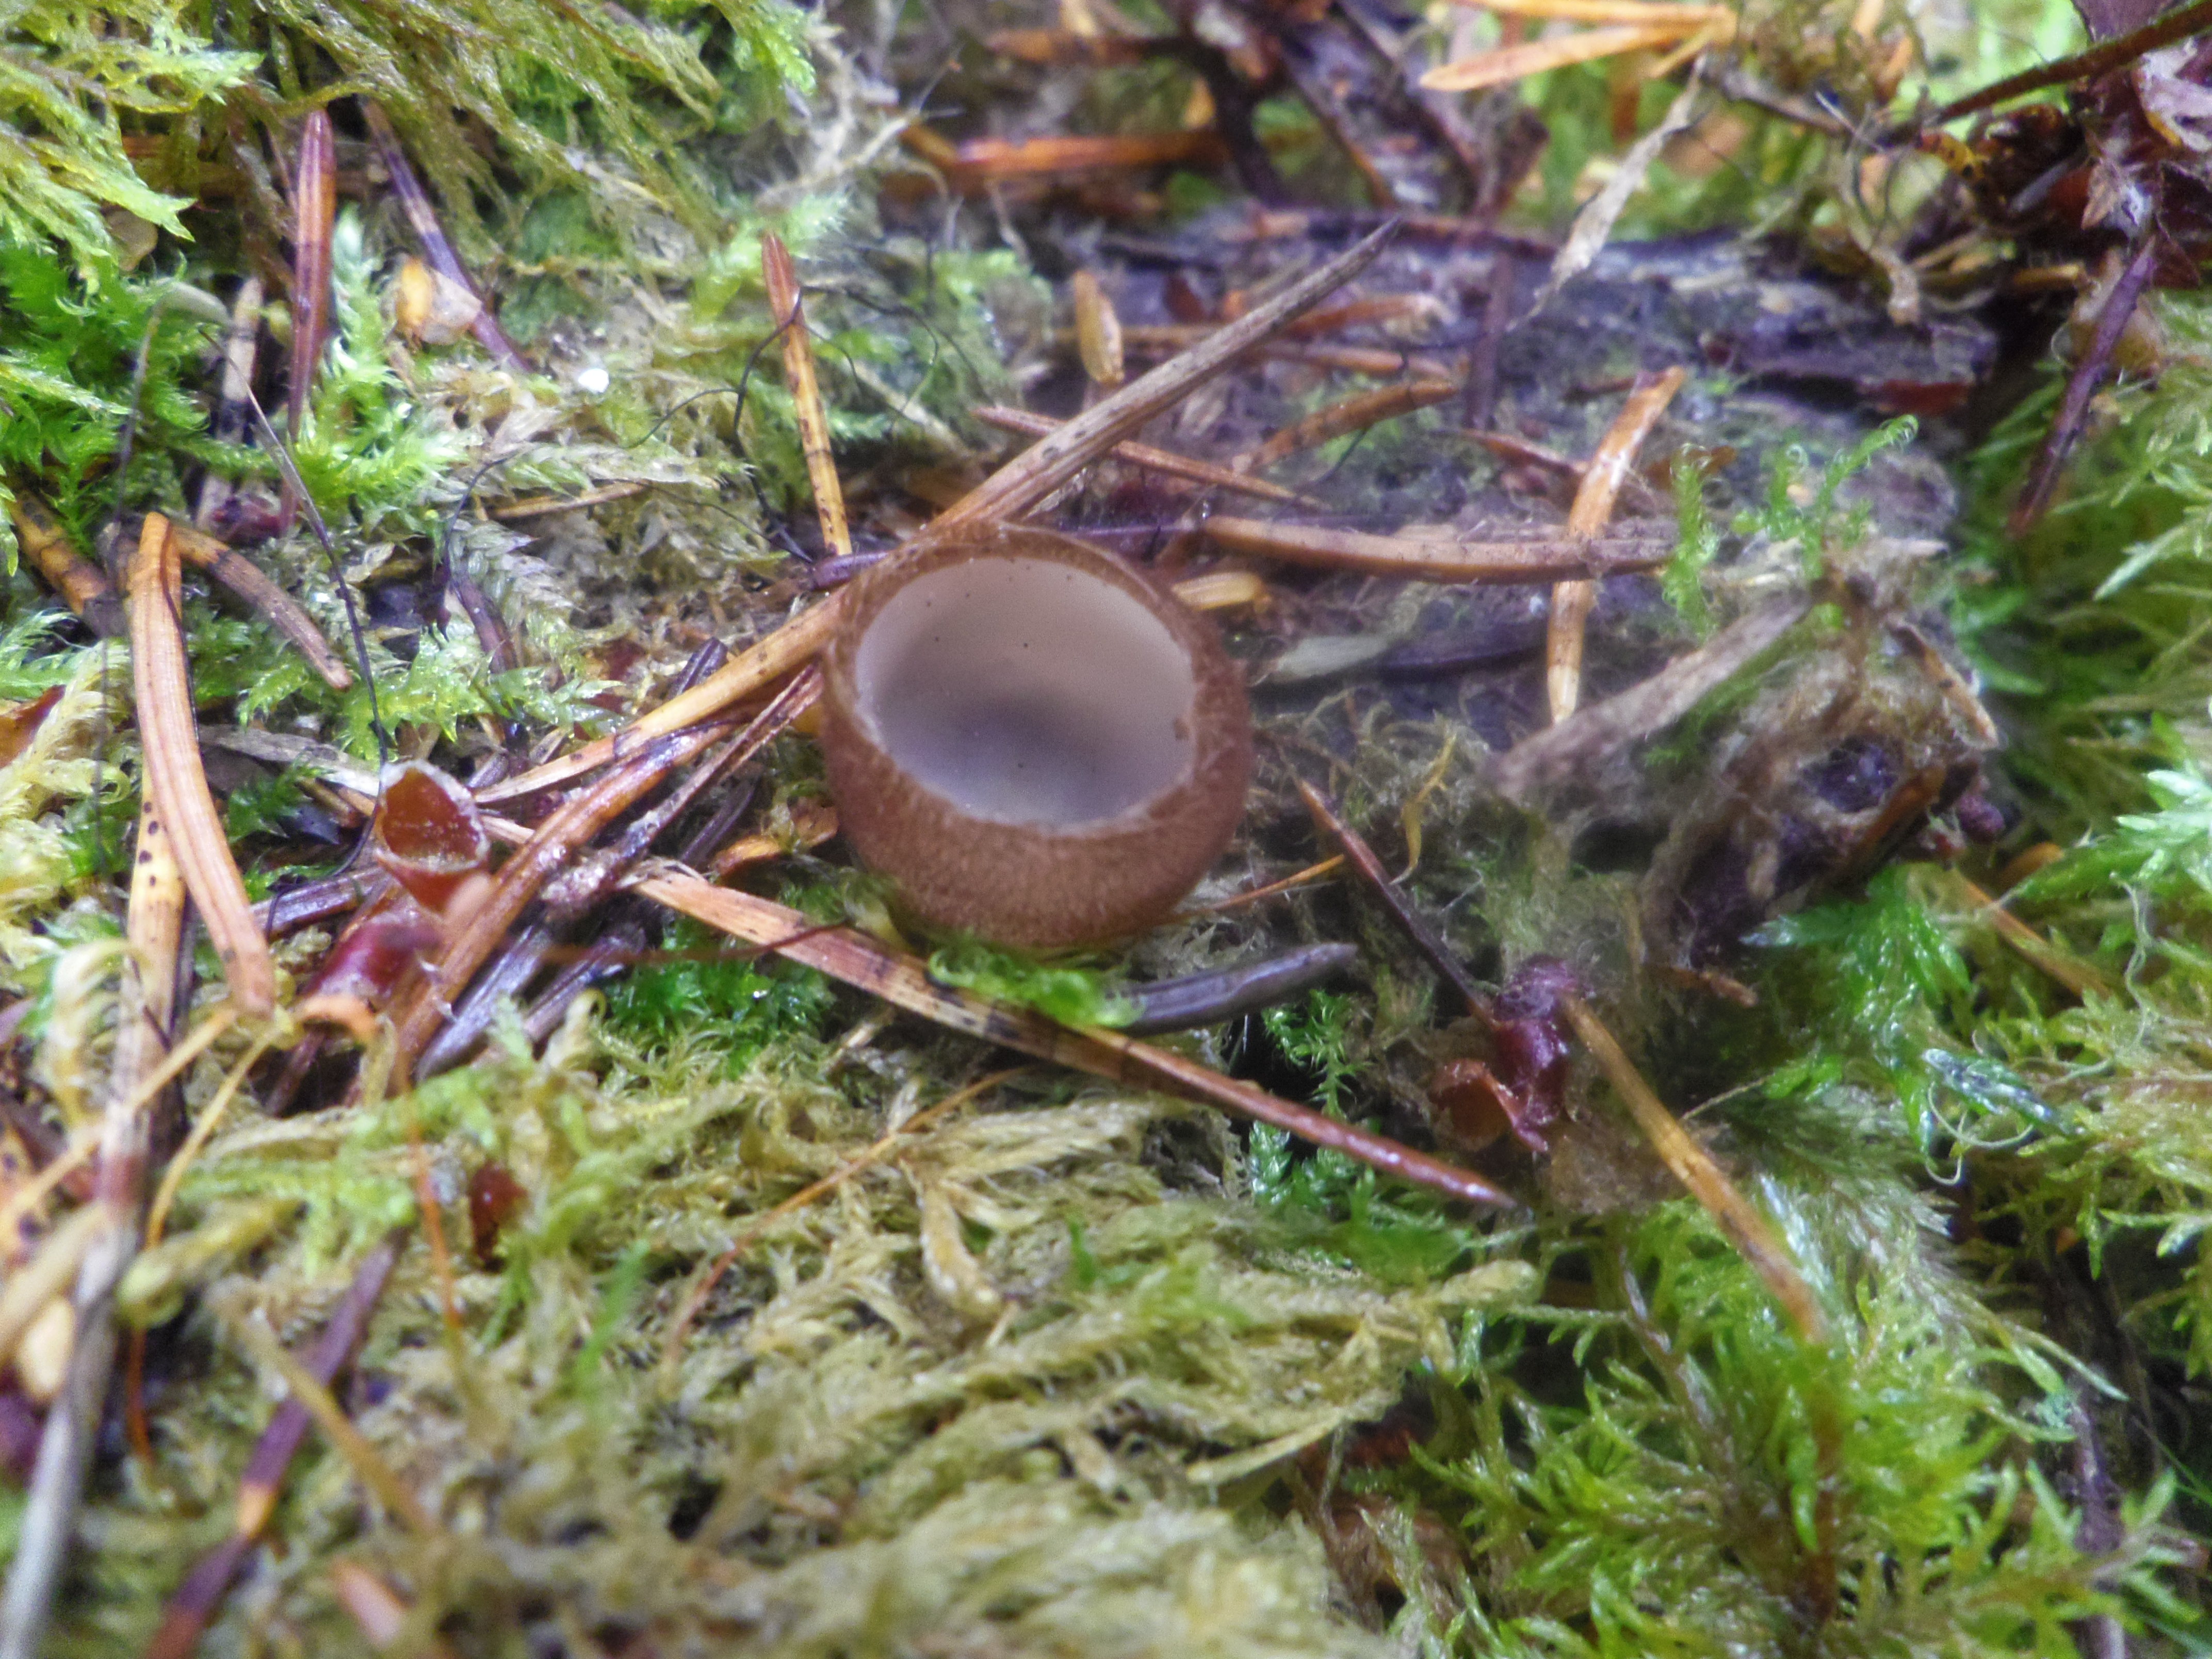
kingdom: Fungi
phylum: Ascomycota
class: Pezizomycetes
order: Pezizales
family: Pyronemataceae
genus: Humaria
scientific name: Humaria hemisphaerica
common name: Glazed cup
